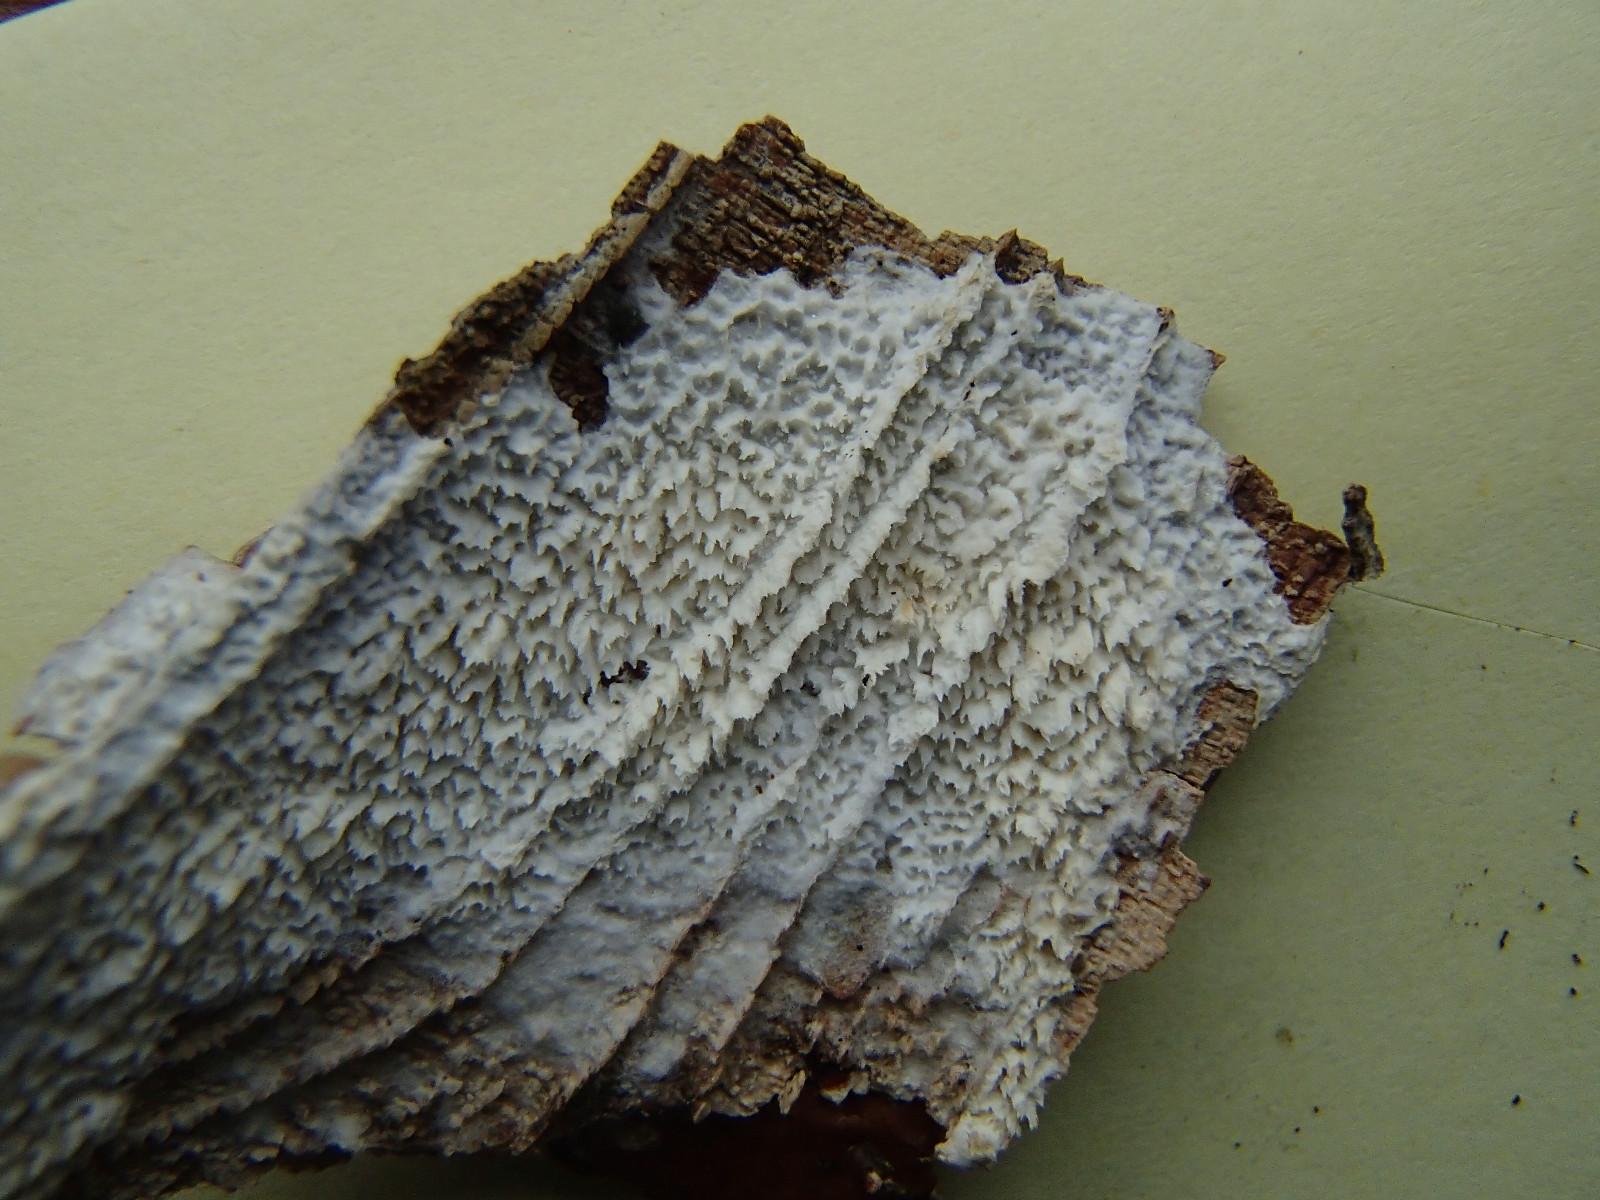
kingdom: Fungi
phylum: Basidiomycota
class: Agaricomycetes
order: Hymenochaetales
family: Schizoporaceae
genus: Xylodon
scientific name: Xylodon
